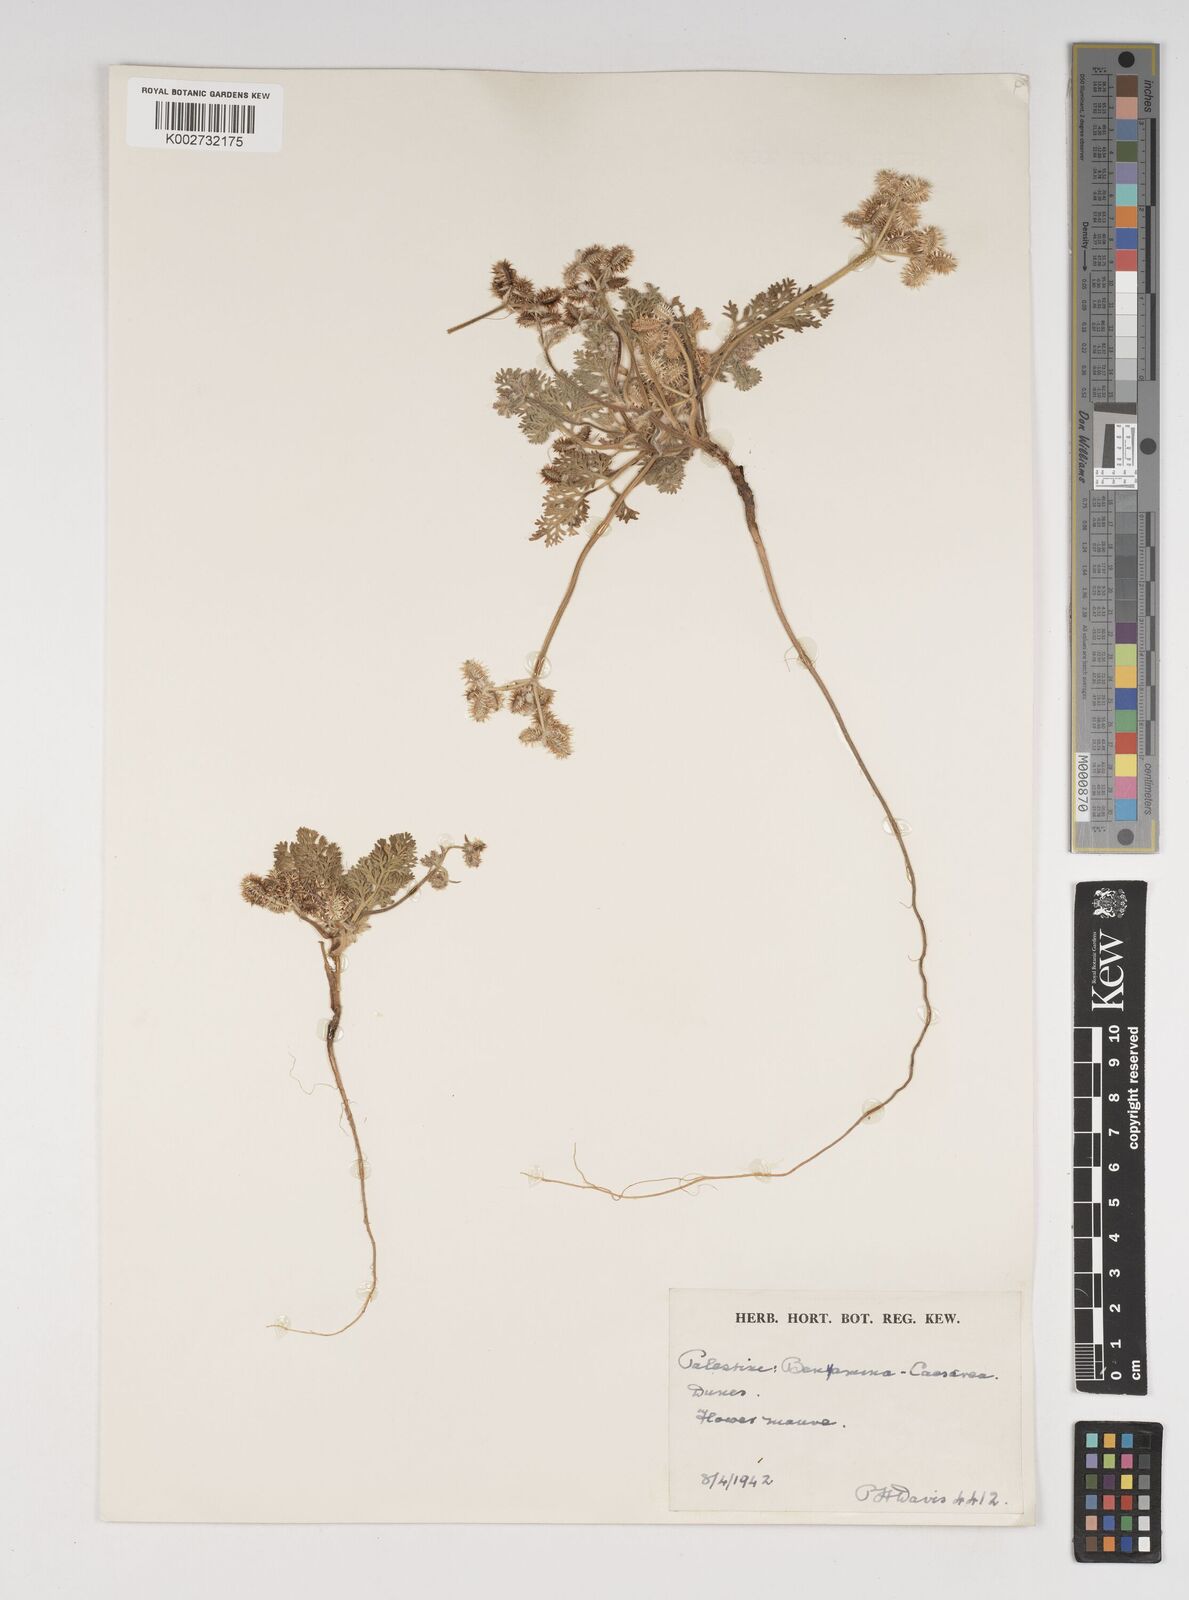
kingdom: Plantae
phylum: Tracheophyta
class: Magnoliopsida
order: Apiales
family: Apiaceae
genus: Daucus
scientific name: Daucus pumilus
